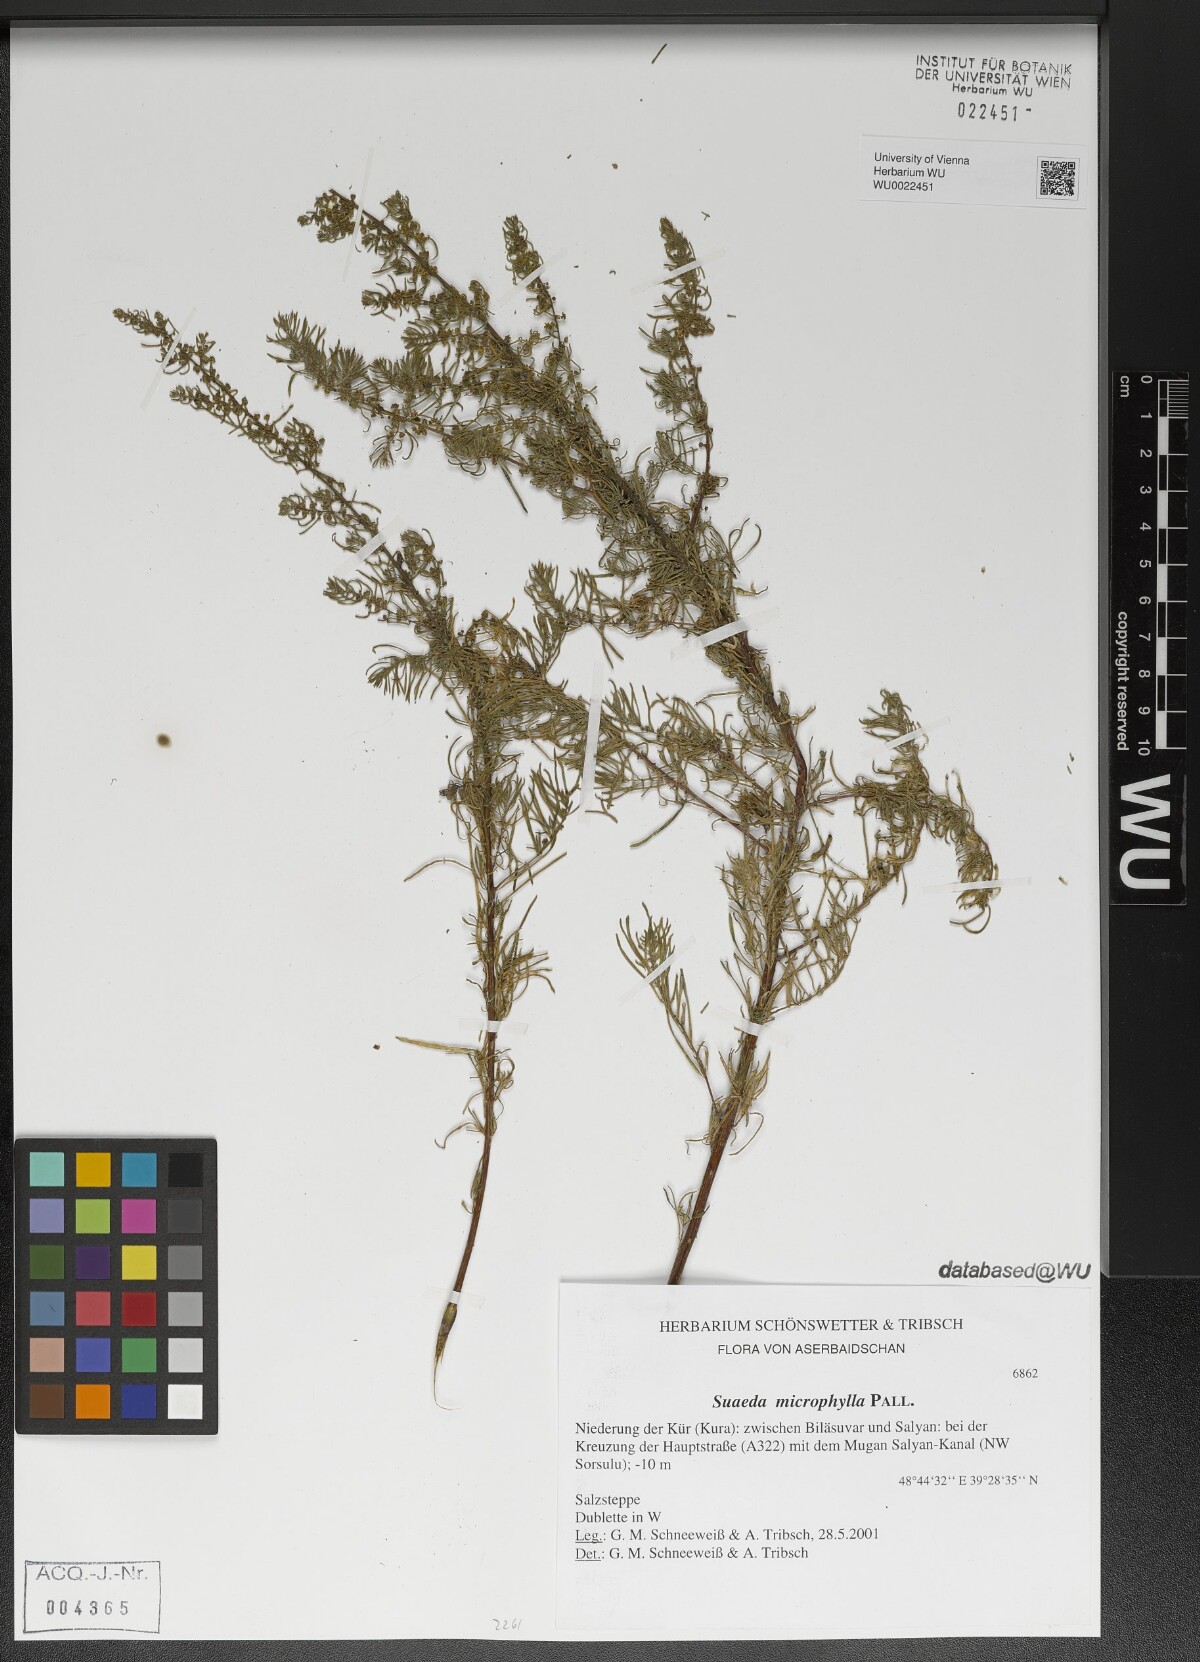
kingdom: Plantae
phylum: Tracheophyta
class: Magnoliopsida
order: Caryophyllales
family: Amaranthaceae
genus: Suaeda
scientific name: Suaeda microphylla
